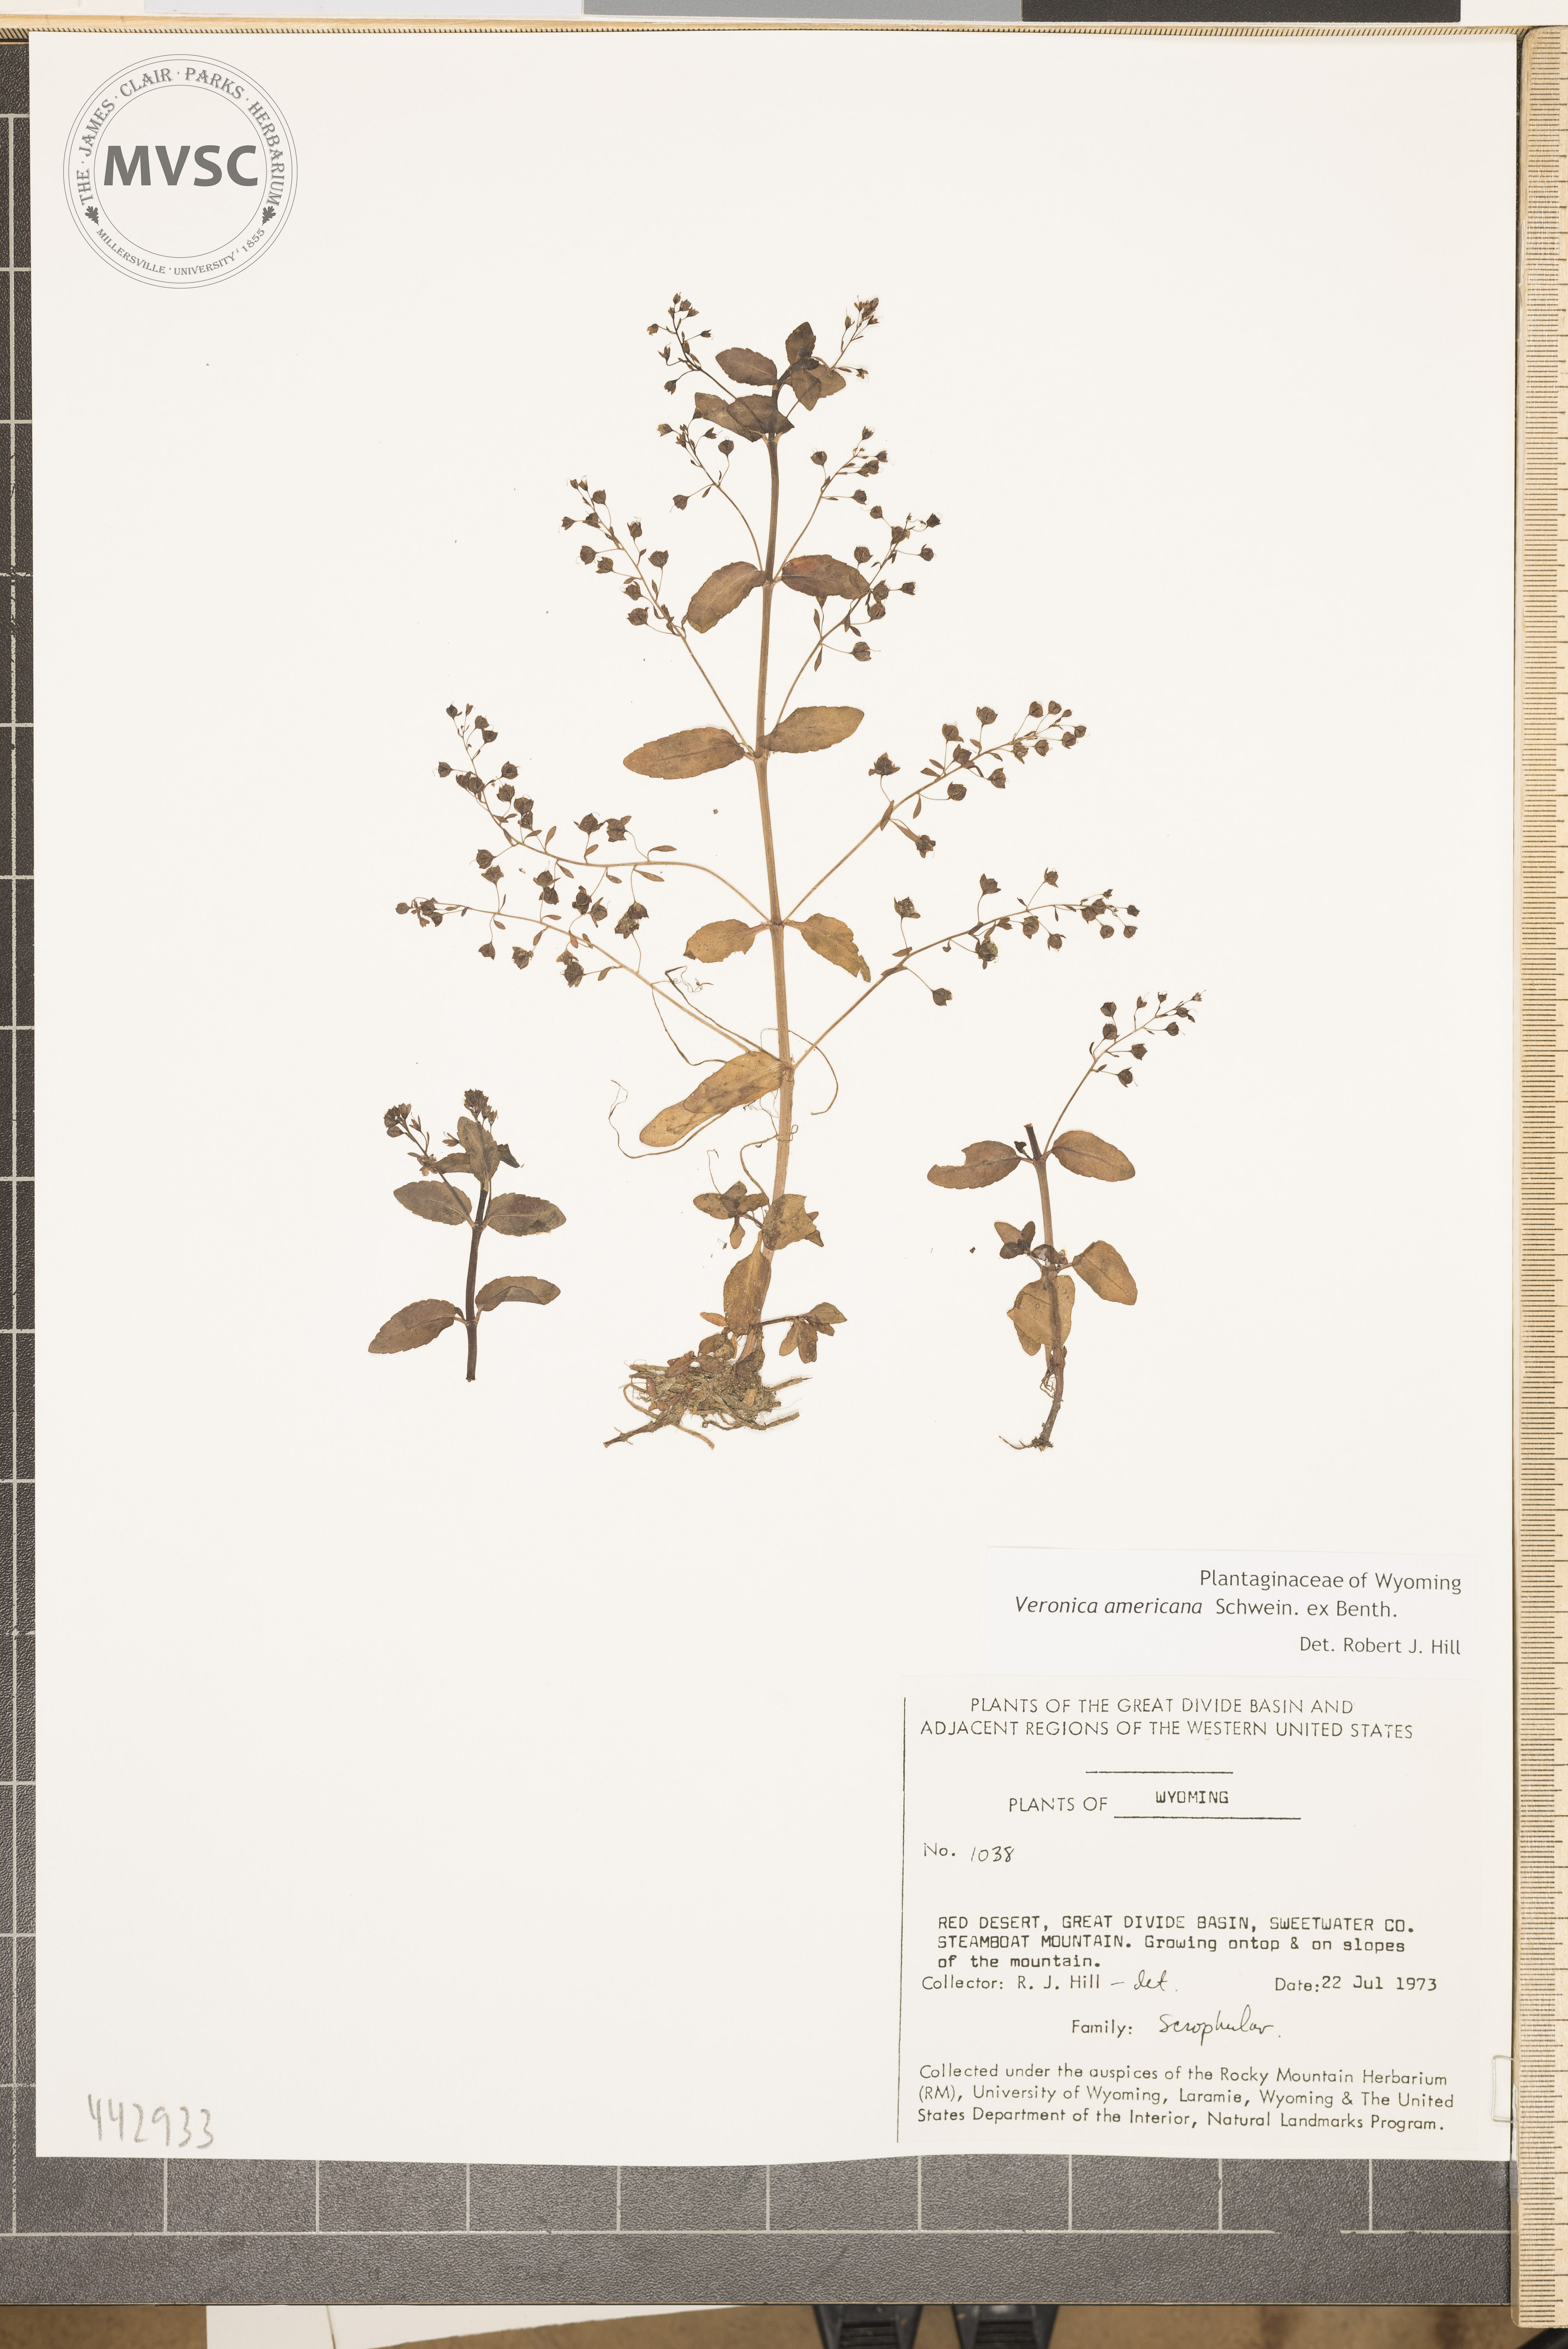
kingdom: Plantae
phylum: Tracheophyta
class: Magnoliopsida
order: Lamiales
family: Plantaginaceae
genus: Veronica
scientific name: Veronica americana
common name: American brooklime
